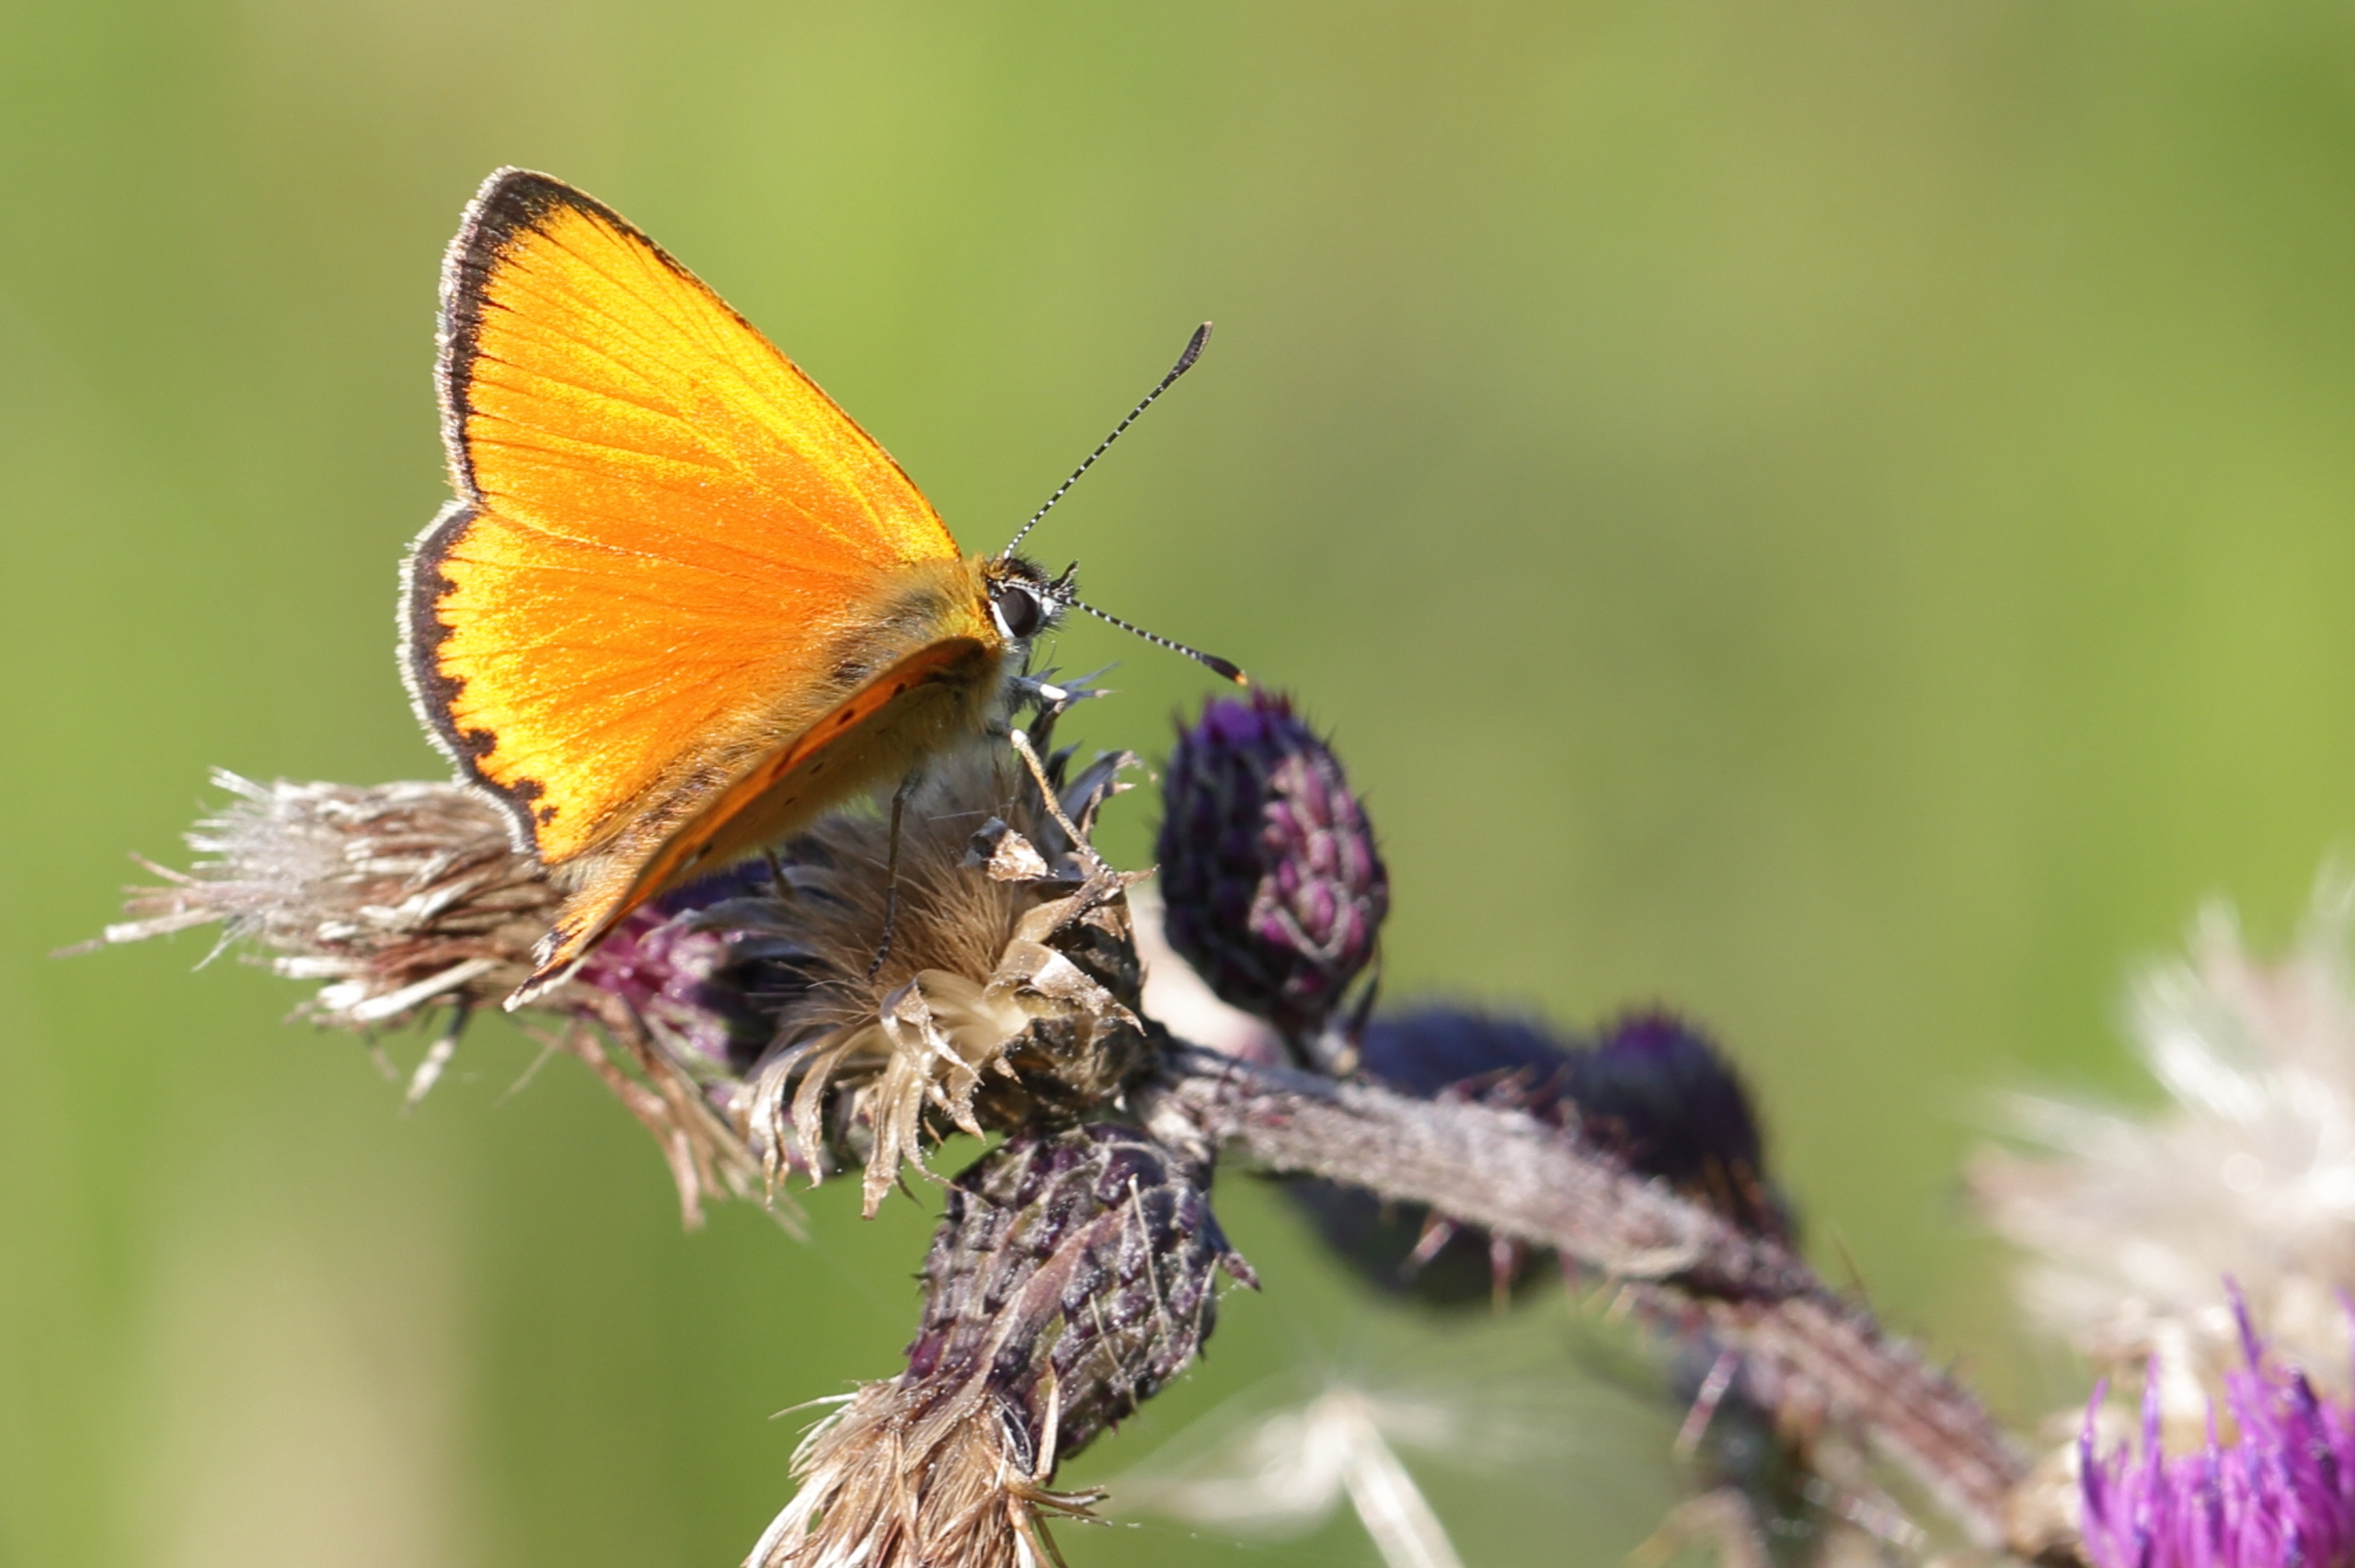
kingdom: Animalia
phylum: Arthropoda
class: Insecta
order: Lepidoptera
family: Lycaenidae
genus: Lycaena
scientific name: Lycaena virgaureae
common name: Dukatsommerfugl
